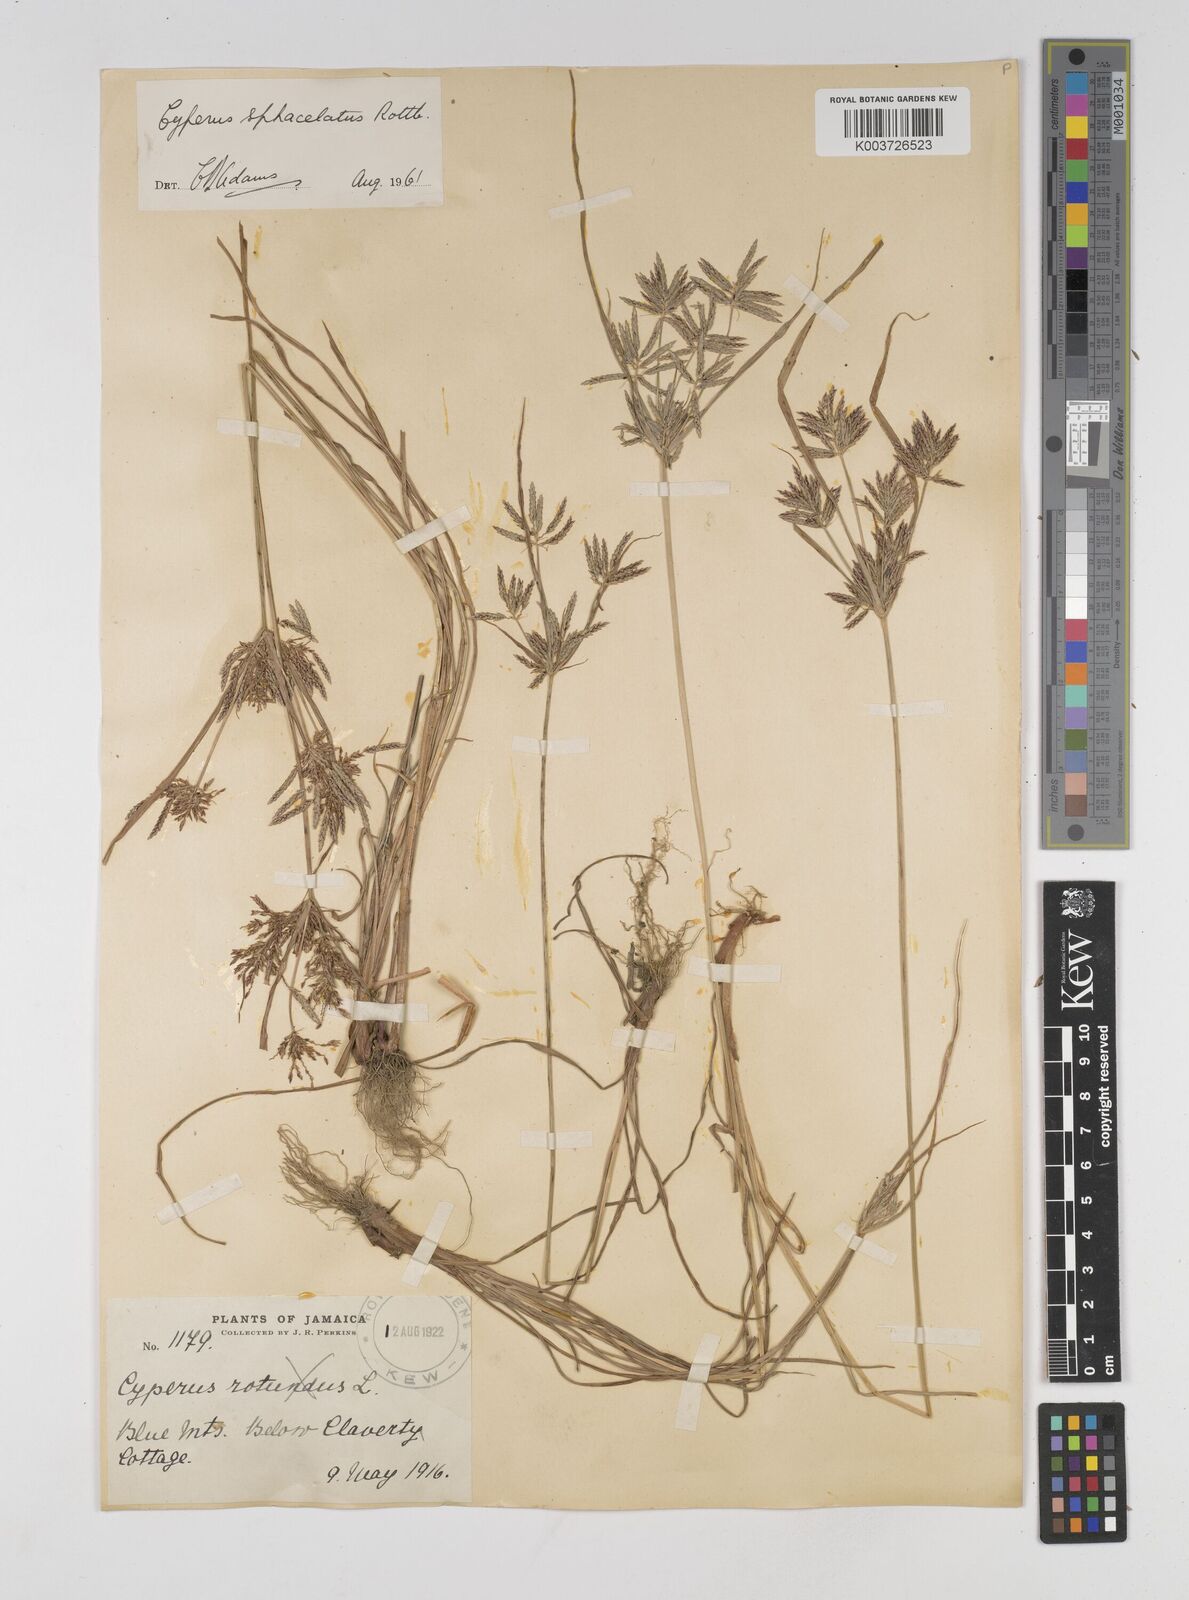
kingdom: Plantae
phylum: Tracheophyta
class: Liliopsida
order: Poales
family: Cyperaceae
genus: Cyperus
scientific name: Cyperus sphacelatus
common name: Roadside flatsedge
